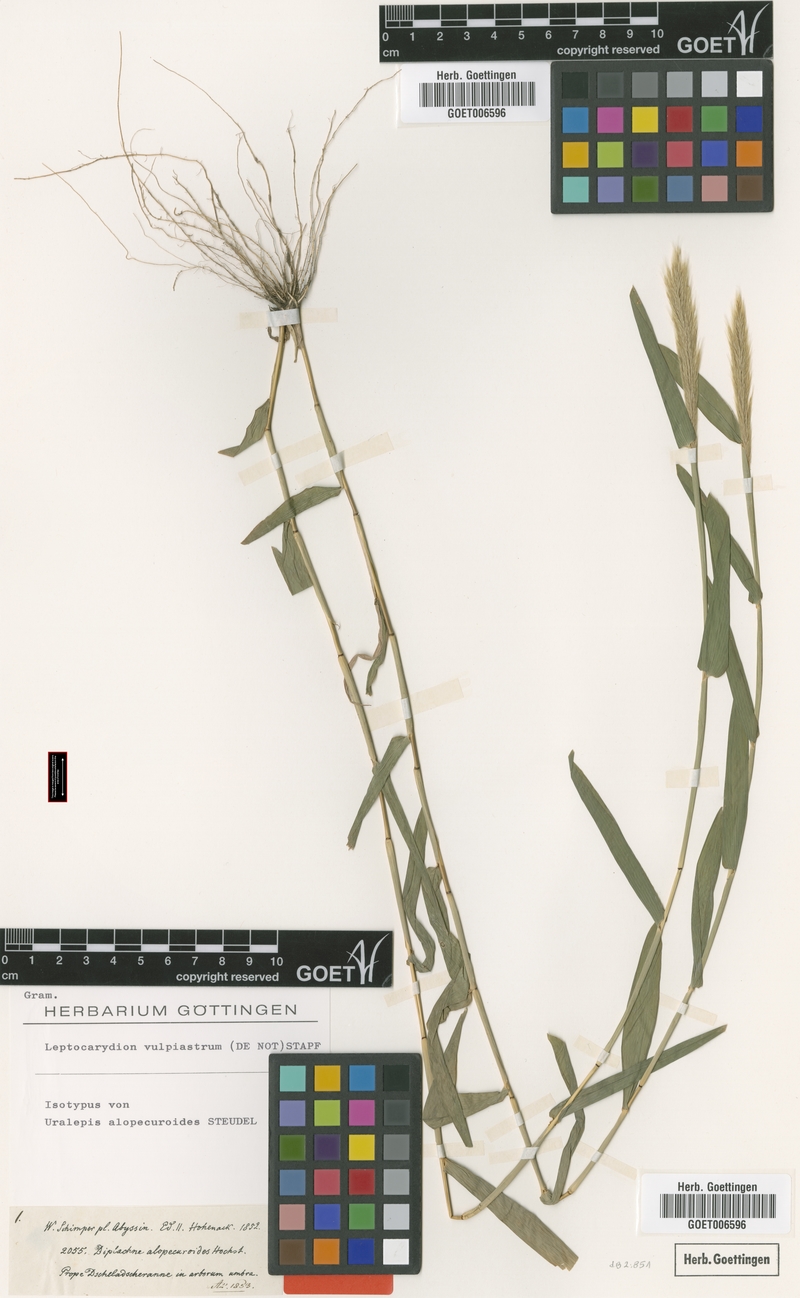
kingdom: Plantae
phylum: Tracheophyta
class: Liliopsida
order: Poales
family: Poaceae
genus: Leptocarydion
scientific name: Leptocarydion vulpiastrum
